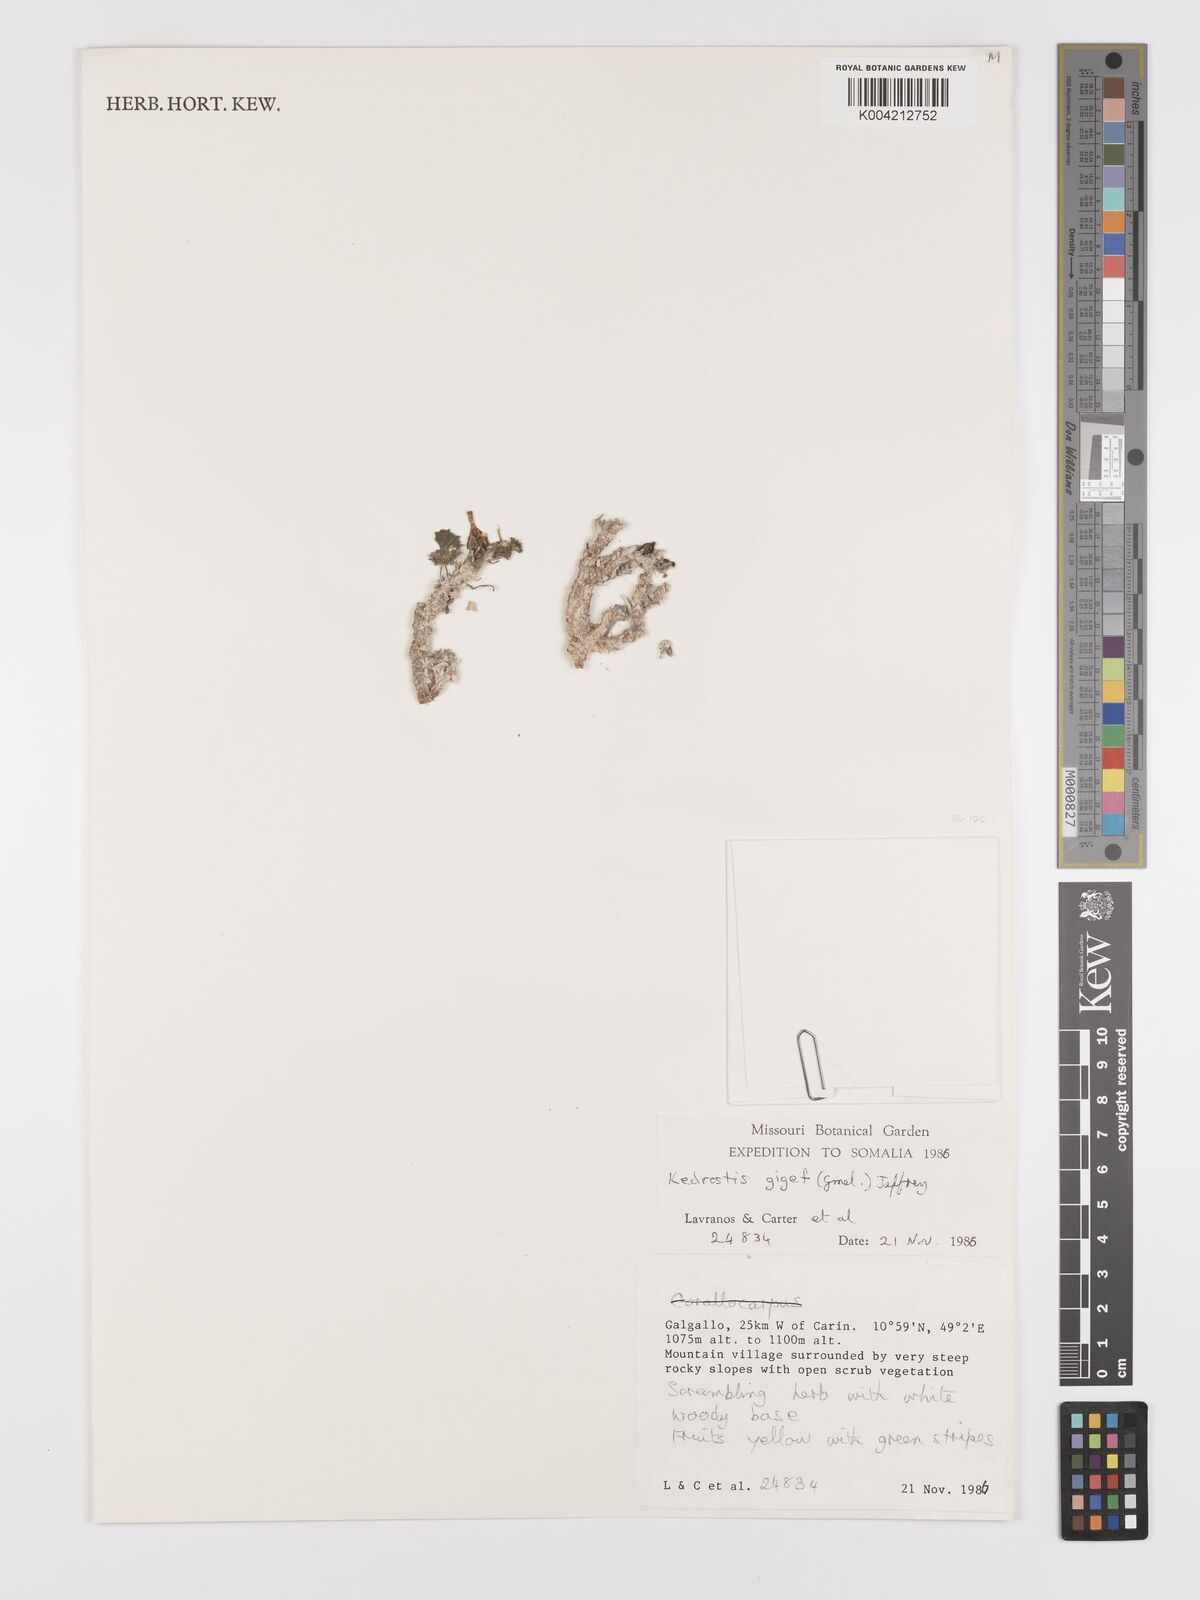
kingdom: Plantae
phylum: Tracheophyta
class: Magnoliopsida
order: Cucurbitales
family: Cucurbitaceae
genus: Corallocarpus
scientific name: Corallocarpus glomeruliflorus
